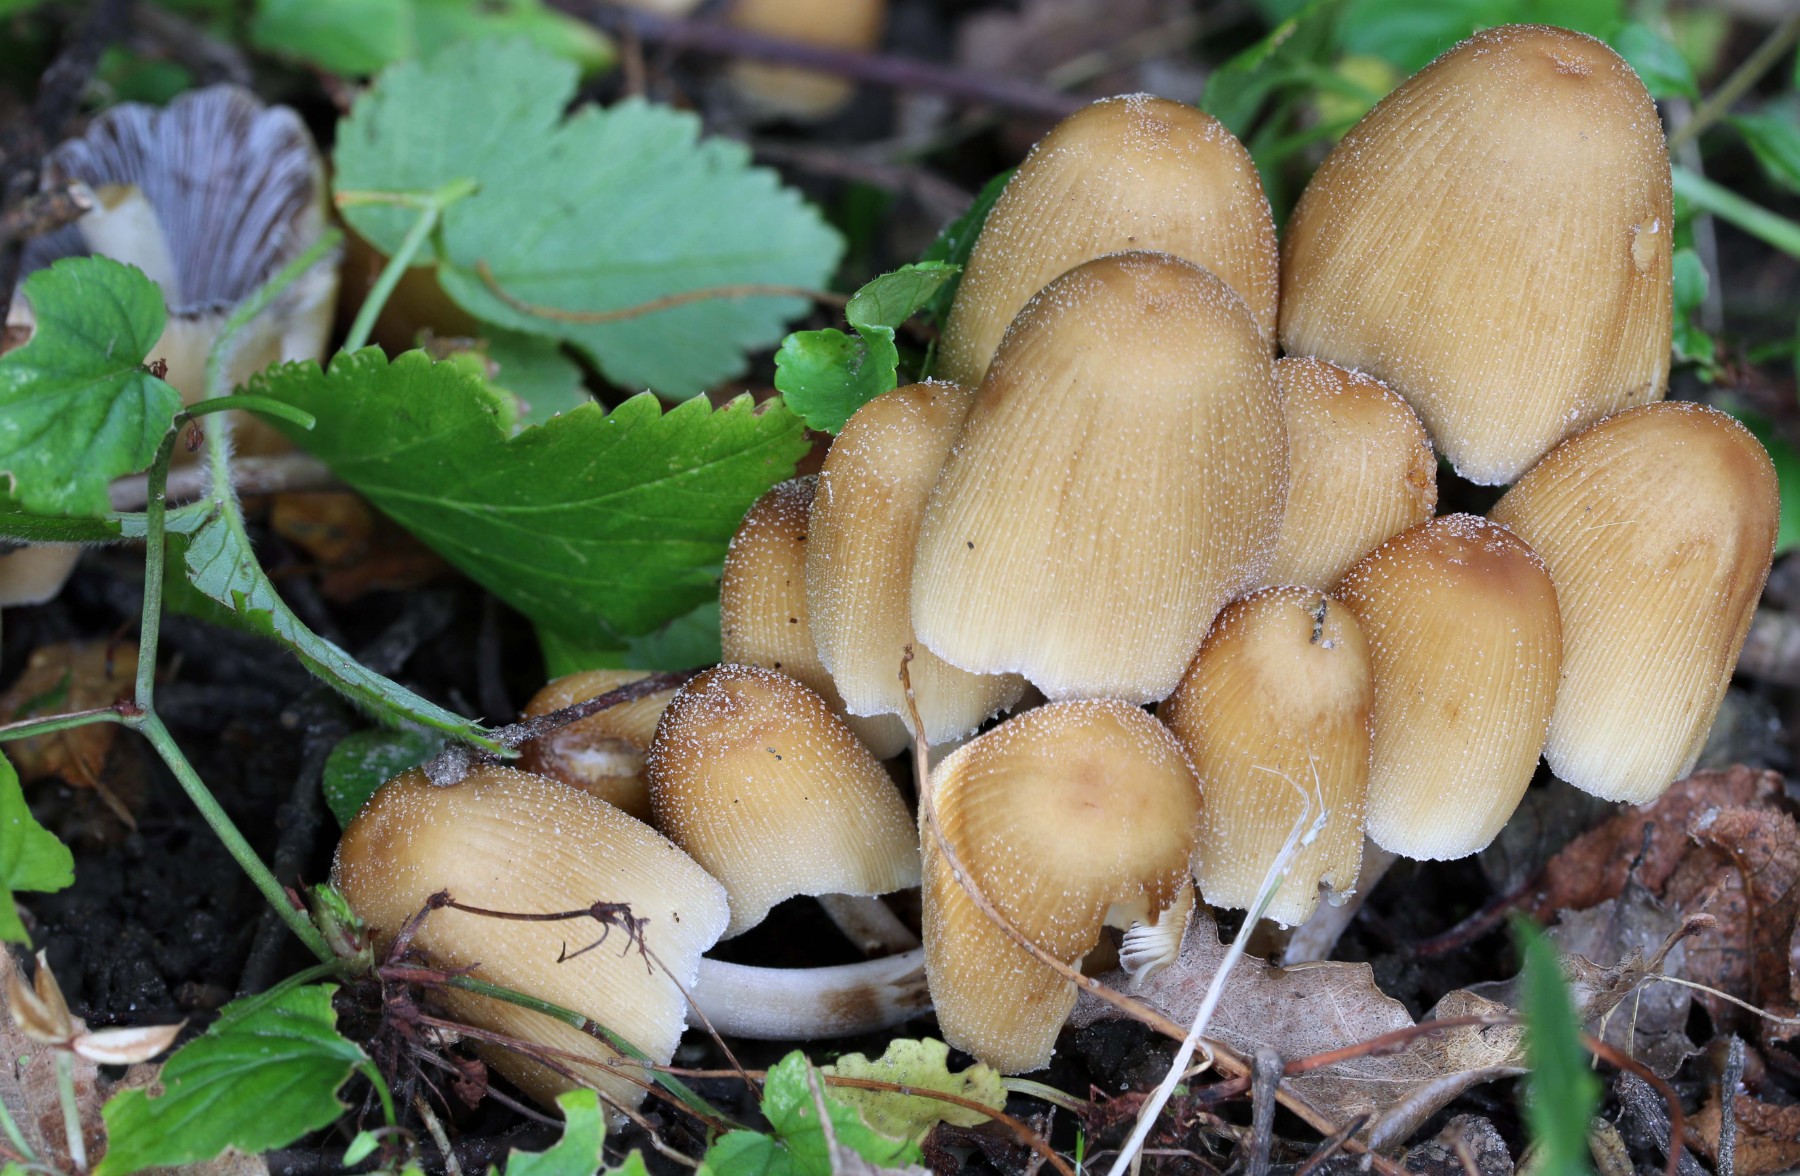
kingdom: Fungi
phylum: Basidiomycota
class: Agaricomycetes
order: Agaricales
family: Psathyrellaceae
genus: Coprinellus
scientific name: Coprinellus micaceus
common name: glimmer-blækhat
